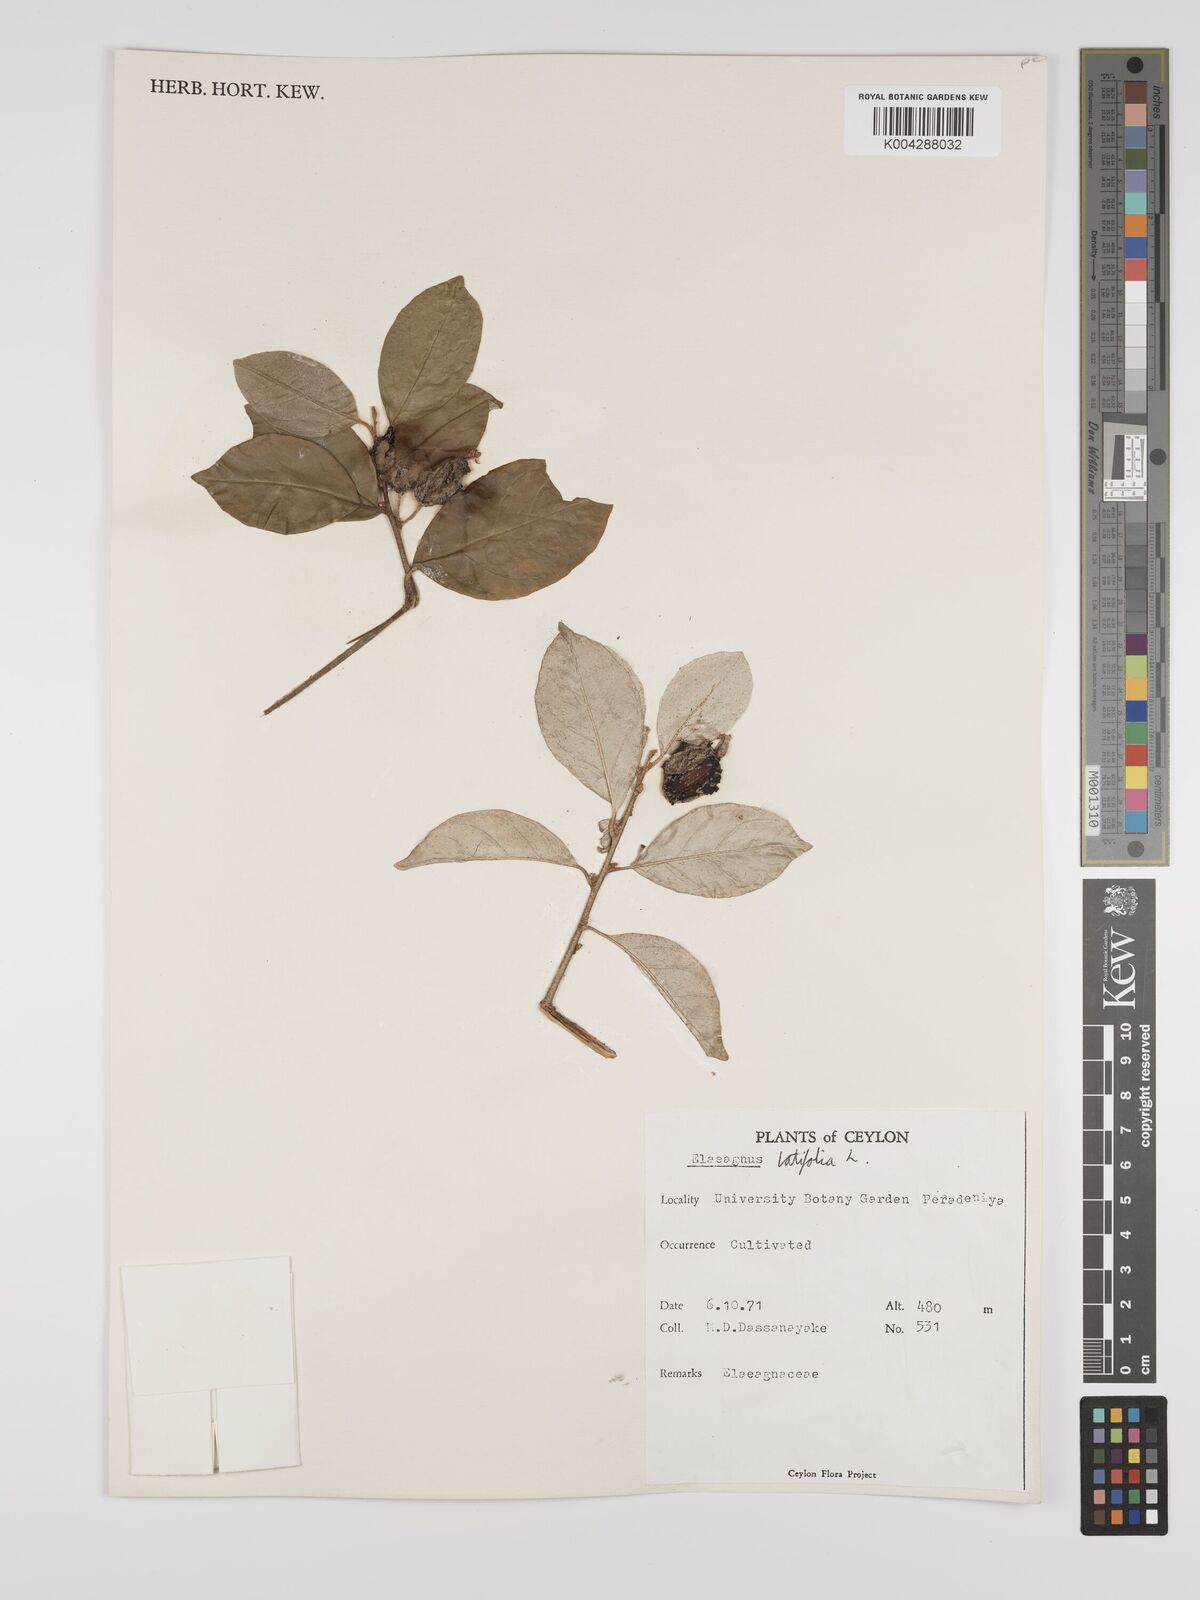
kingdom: Plantae
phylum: Tracheophyta
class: Magnoliopsida
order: Rosales
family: Elaeagnaceae
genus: Elaeagnus
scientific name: Elaeagnus latifolia
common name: Oleaster
